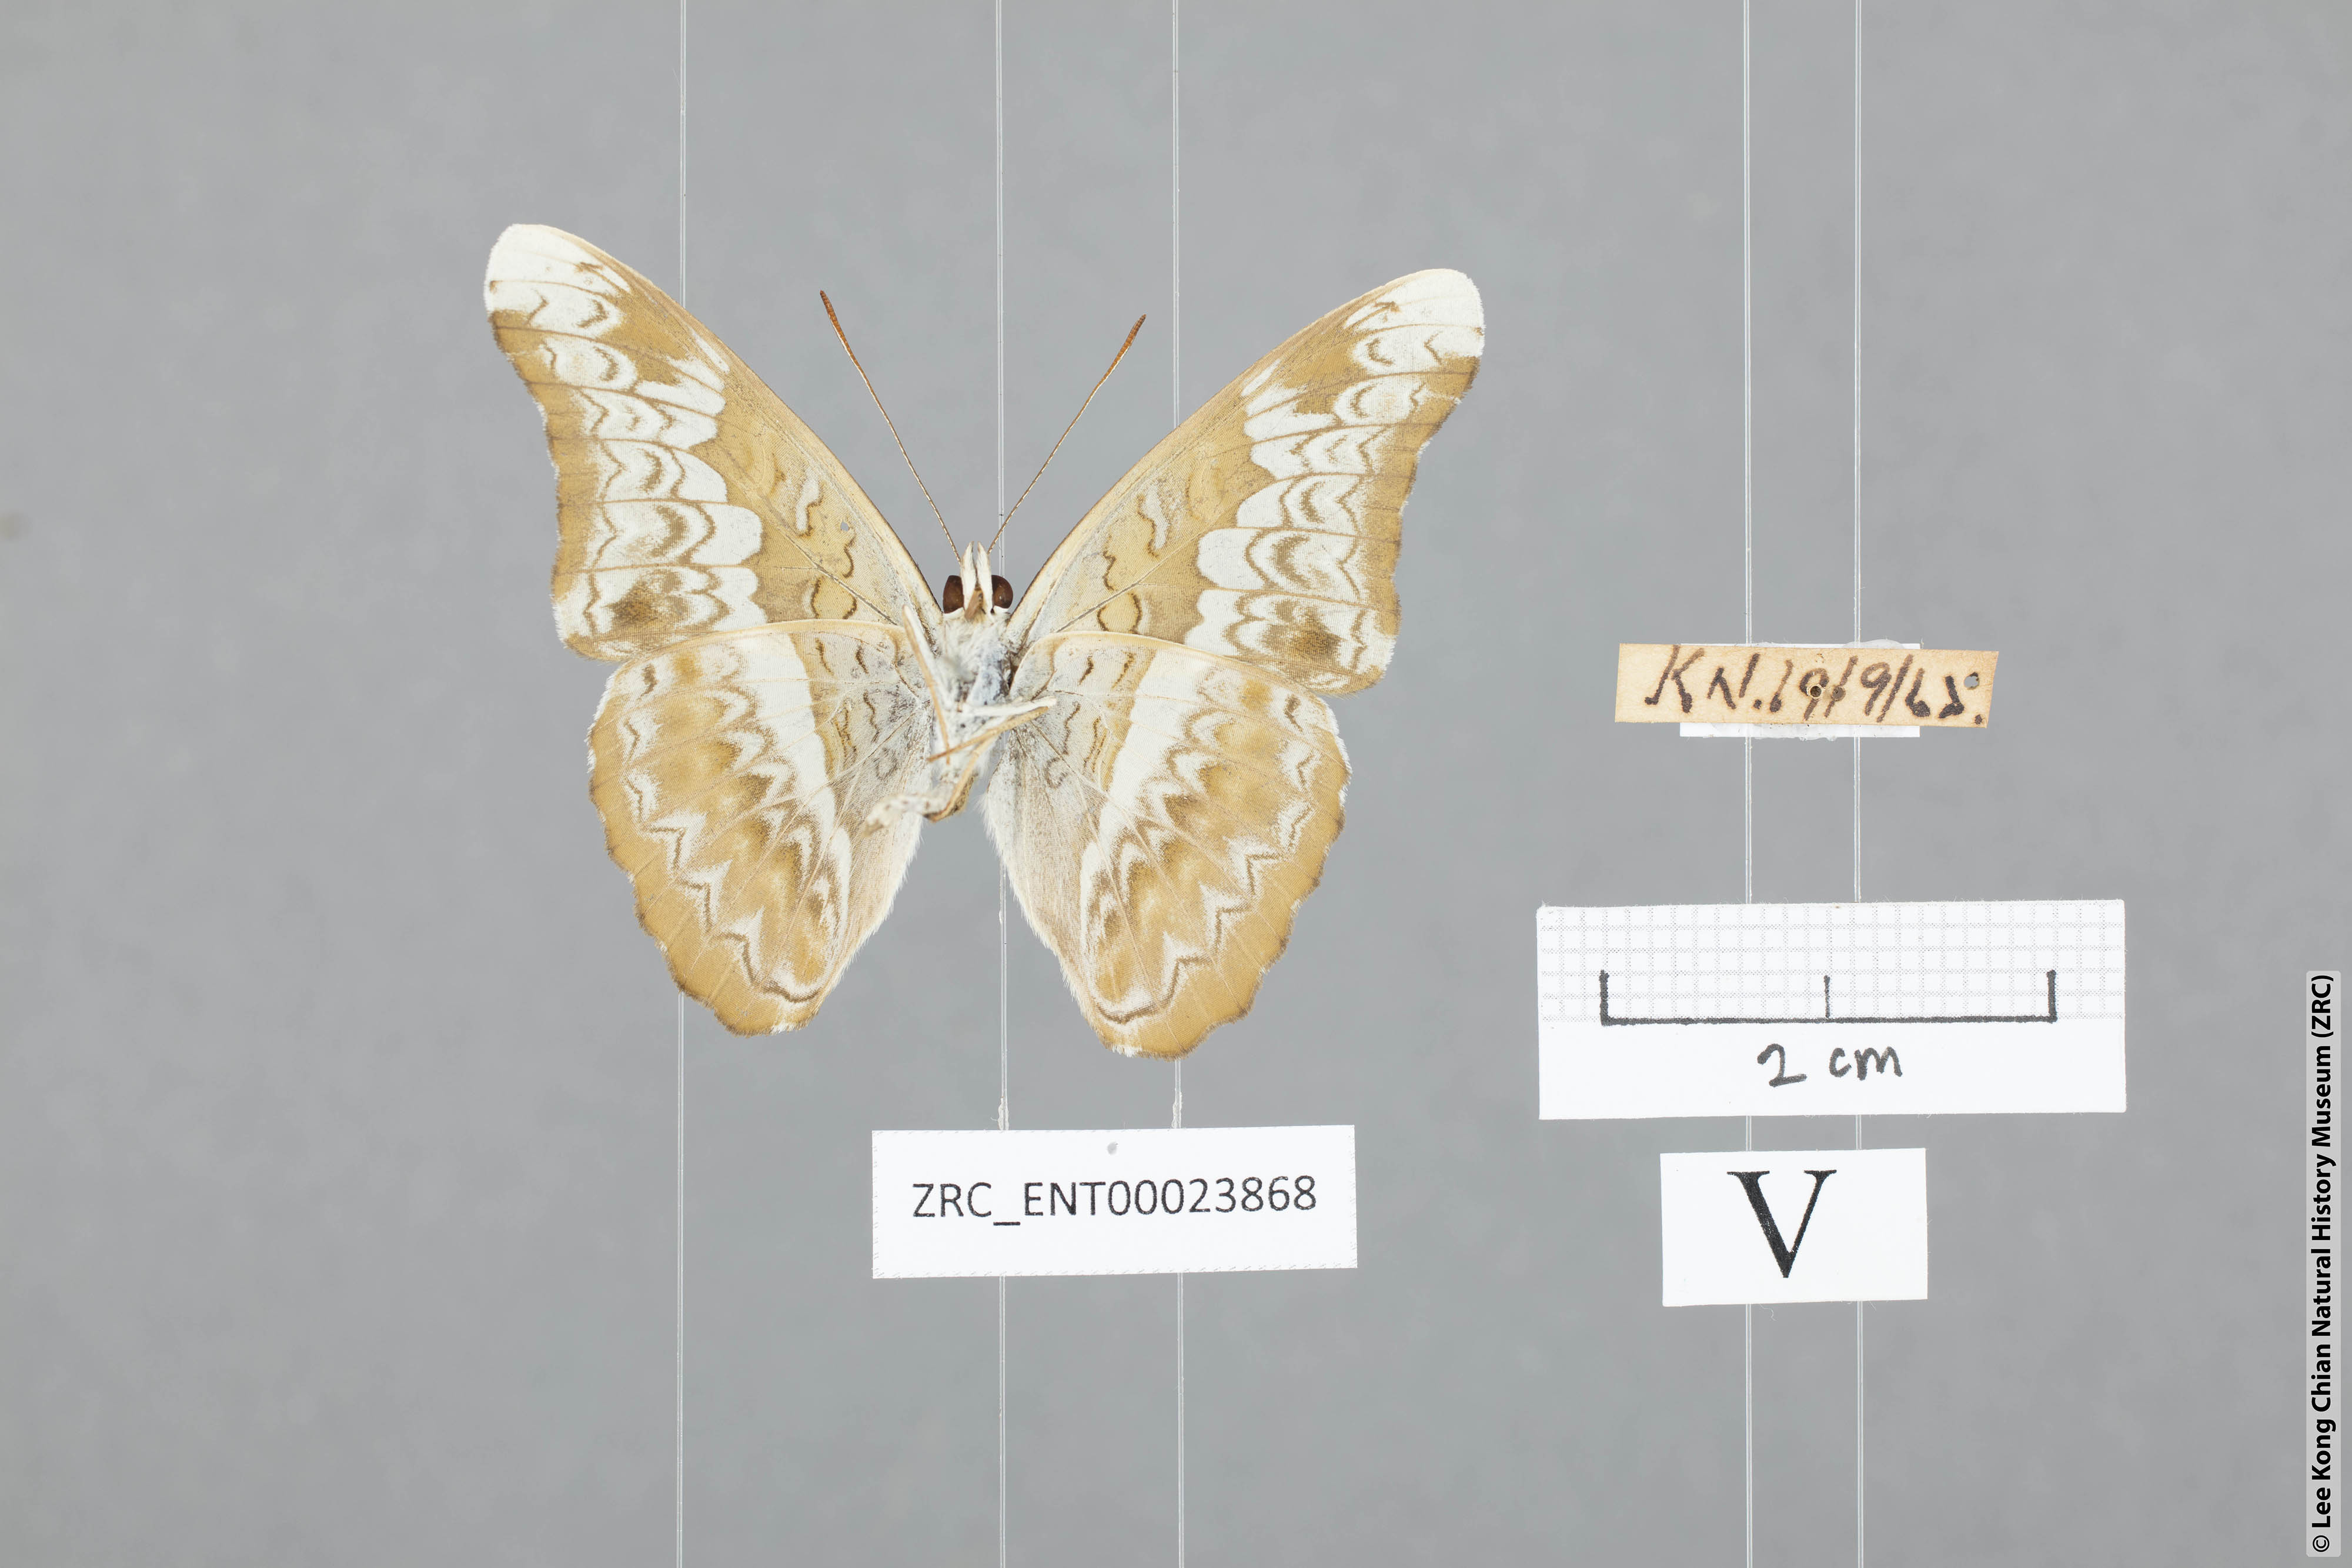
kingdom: Animalia
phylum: Arthropoda
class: Insecta
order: Lepidoptera
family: Nymphalidae
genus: Lebadea
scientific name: Lebadea martha
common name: Knight
